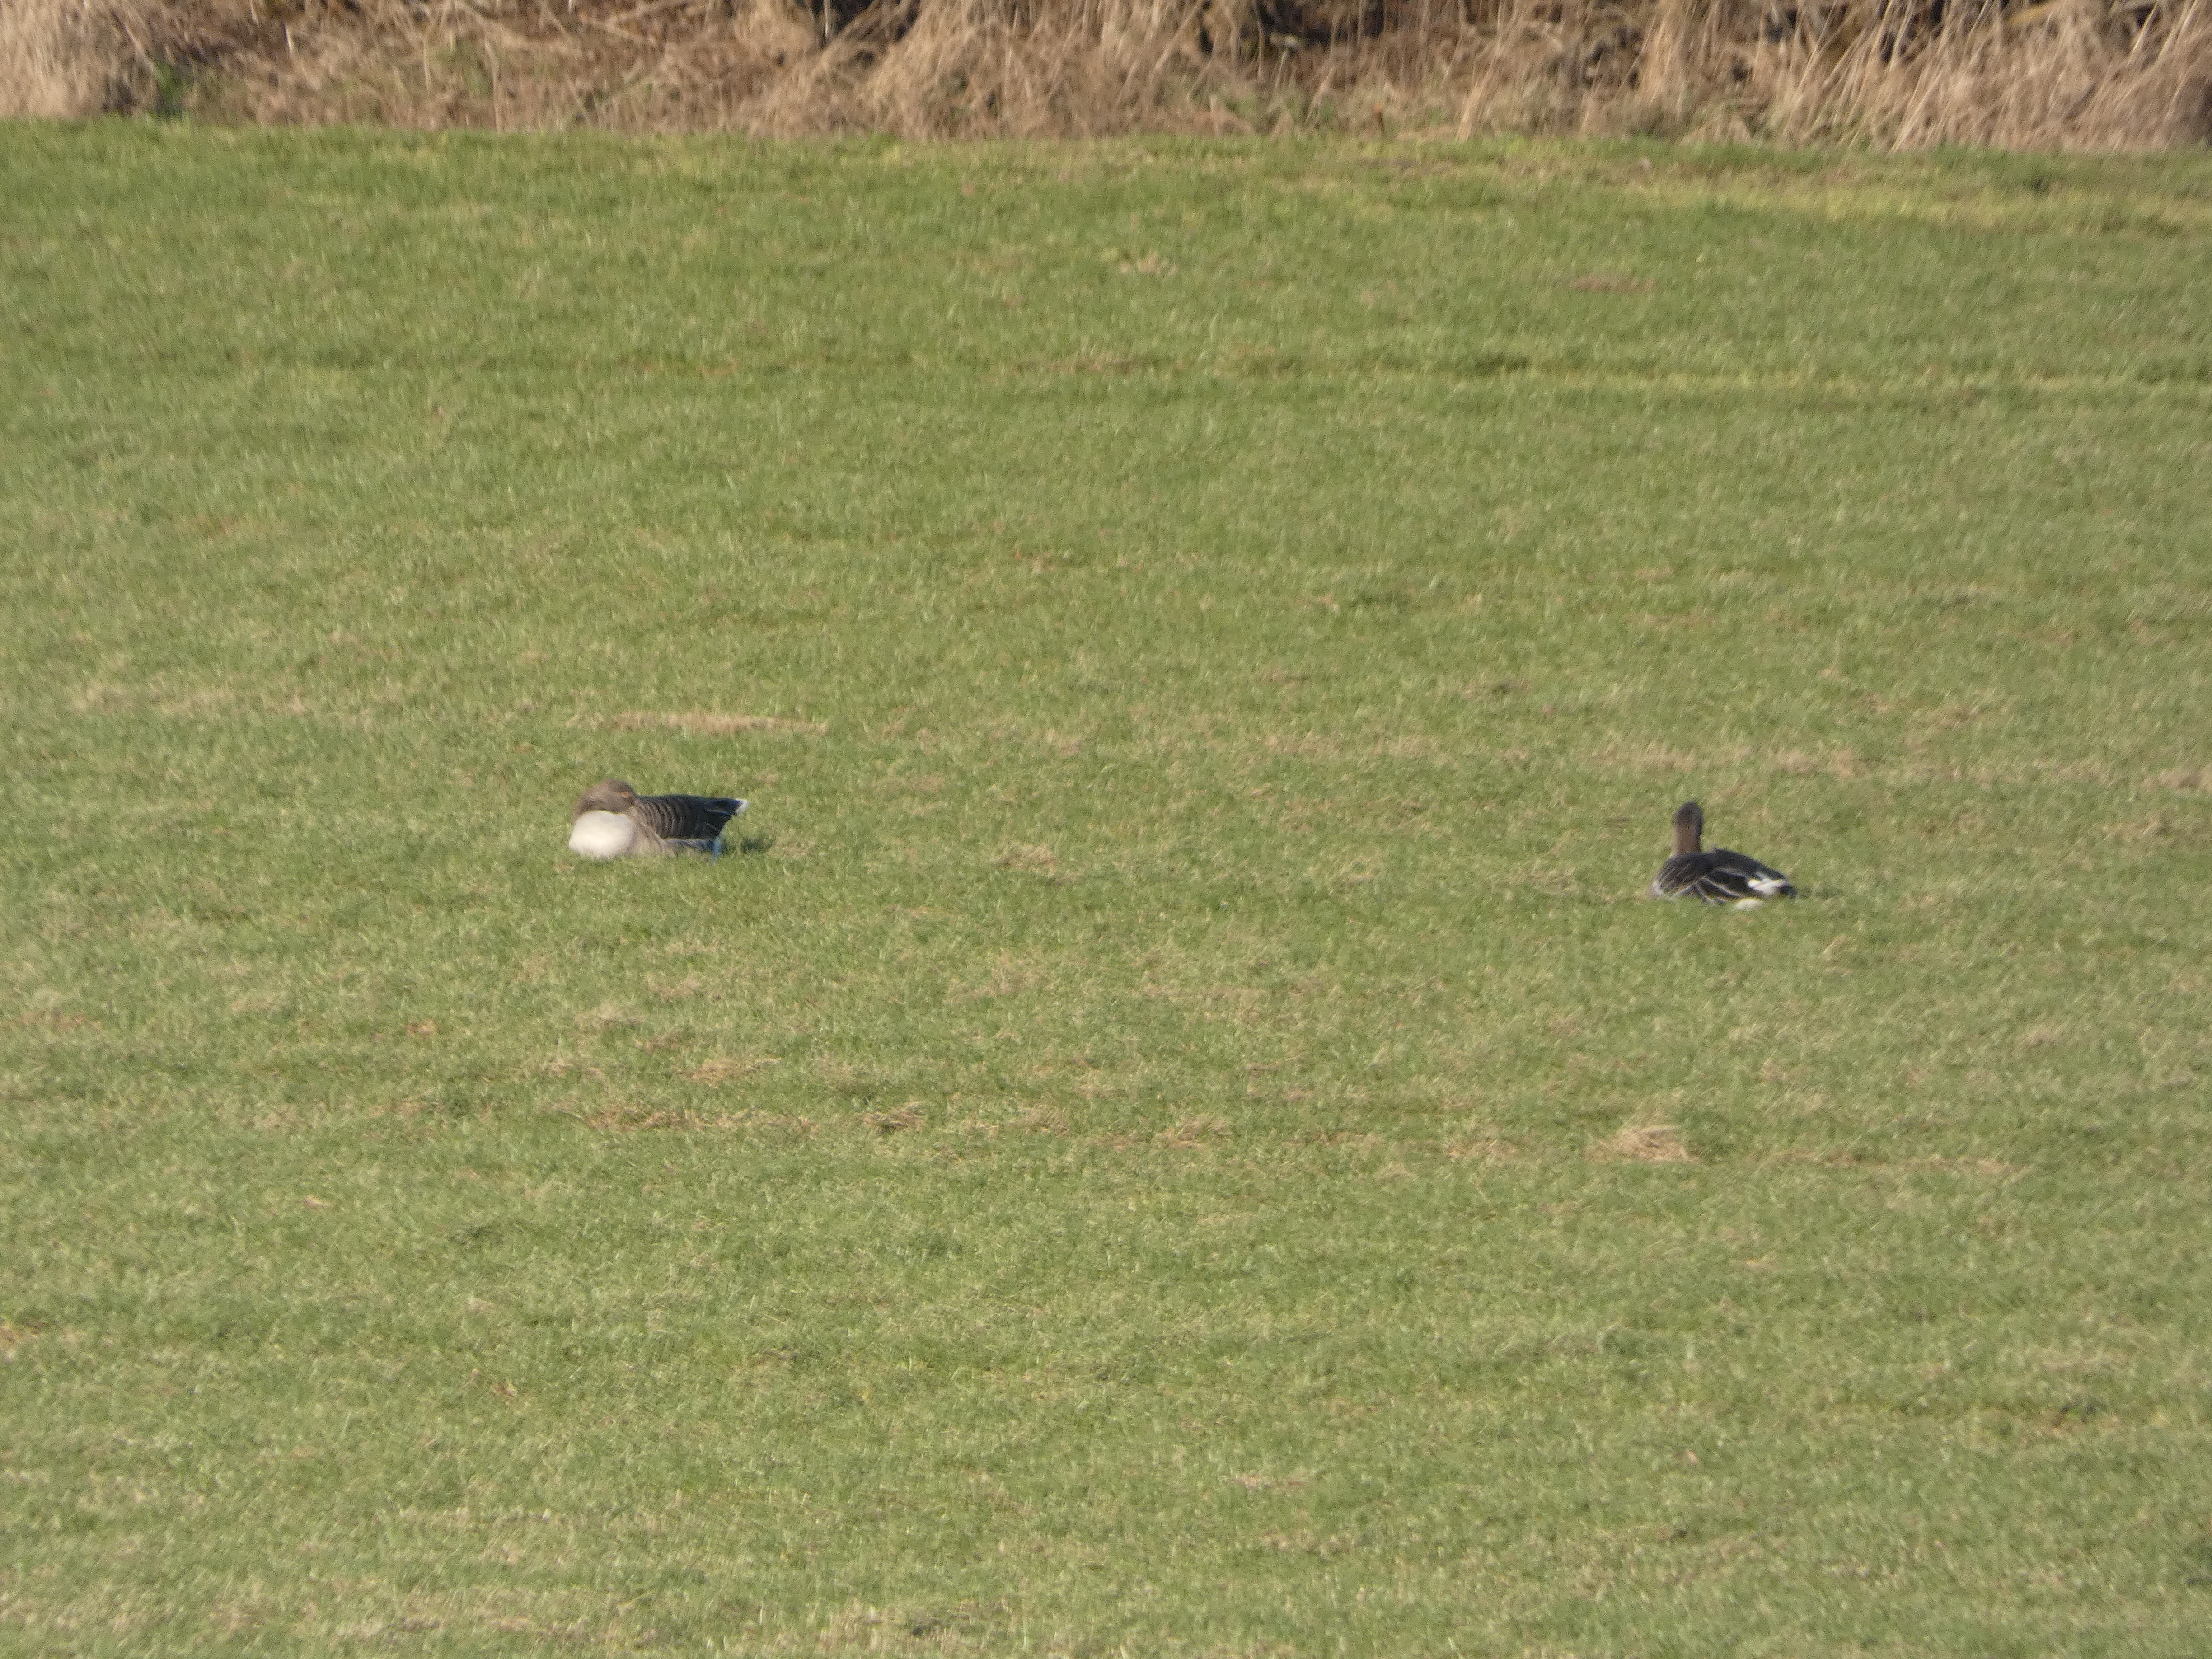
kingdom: Animalia
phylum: Chordata
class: Aves
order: Anseriformes
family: Anatidae
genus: Anser
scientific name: Anser anser
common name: Grågås
